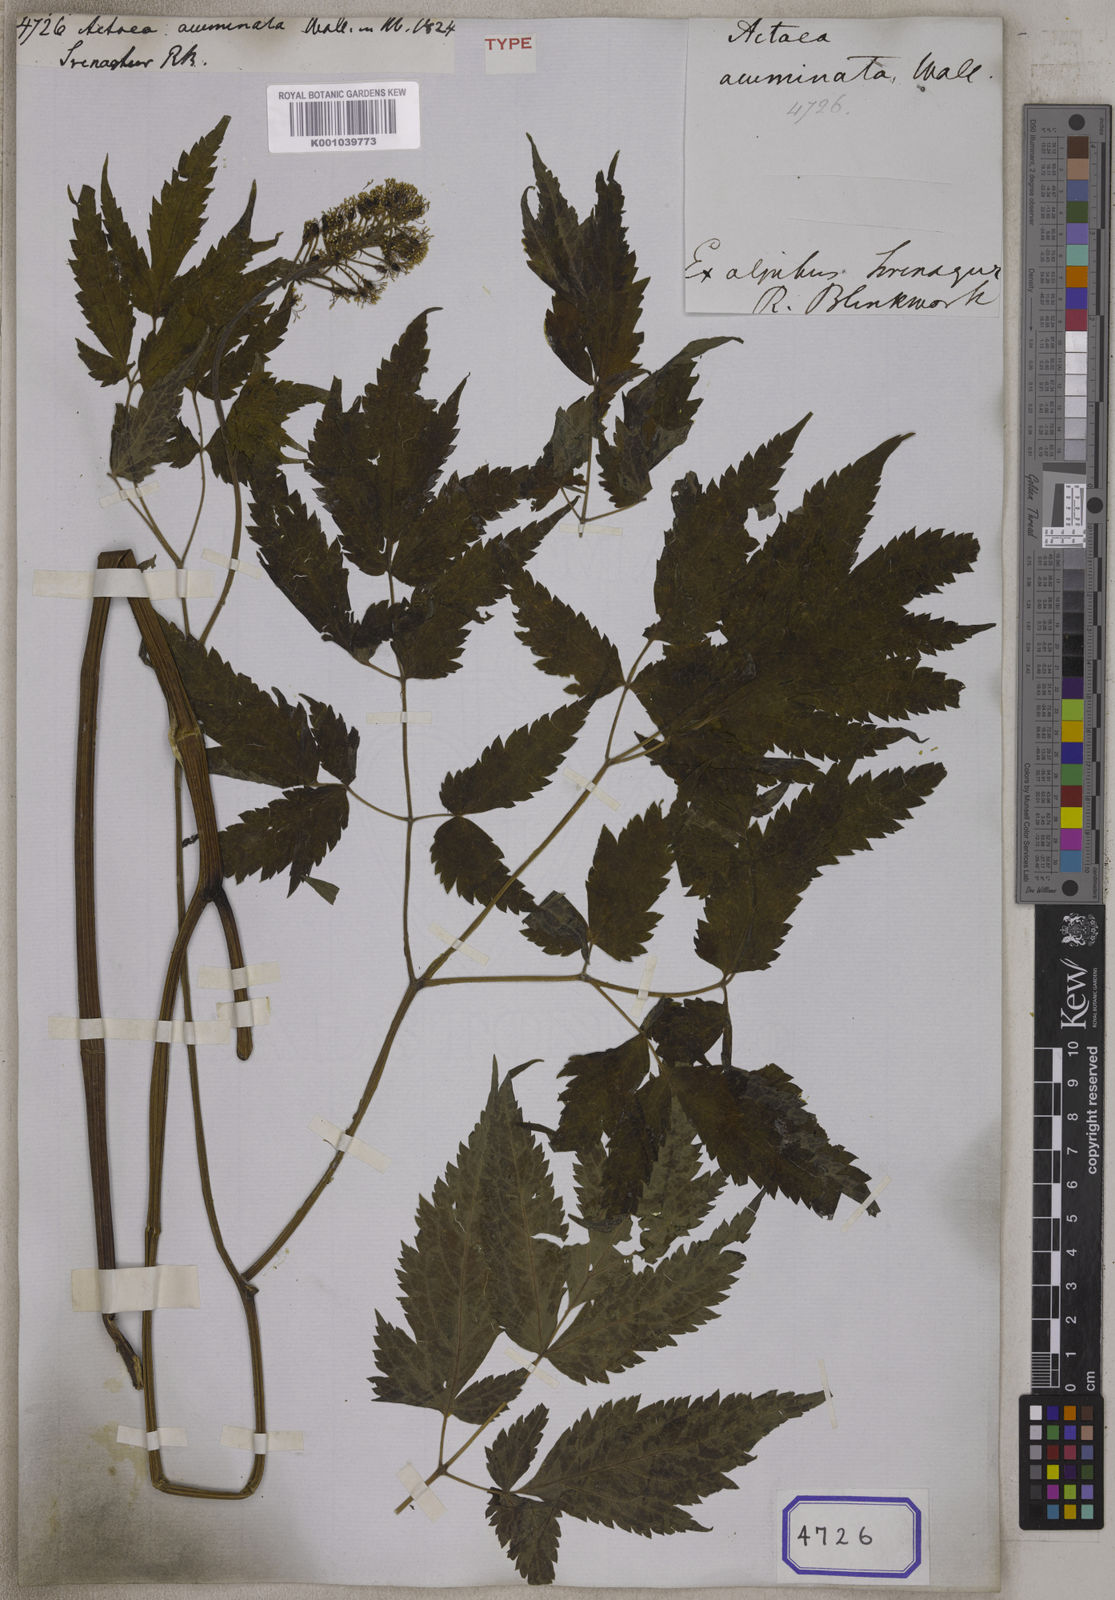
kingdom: Plantae
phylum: Tracheophyta
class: Magnoliopsida
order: Ranunculales
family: Ranunculaceae
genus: Actaea
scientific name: Actaea
